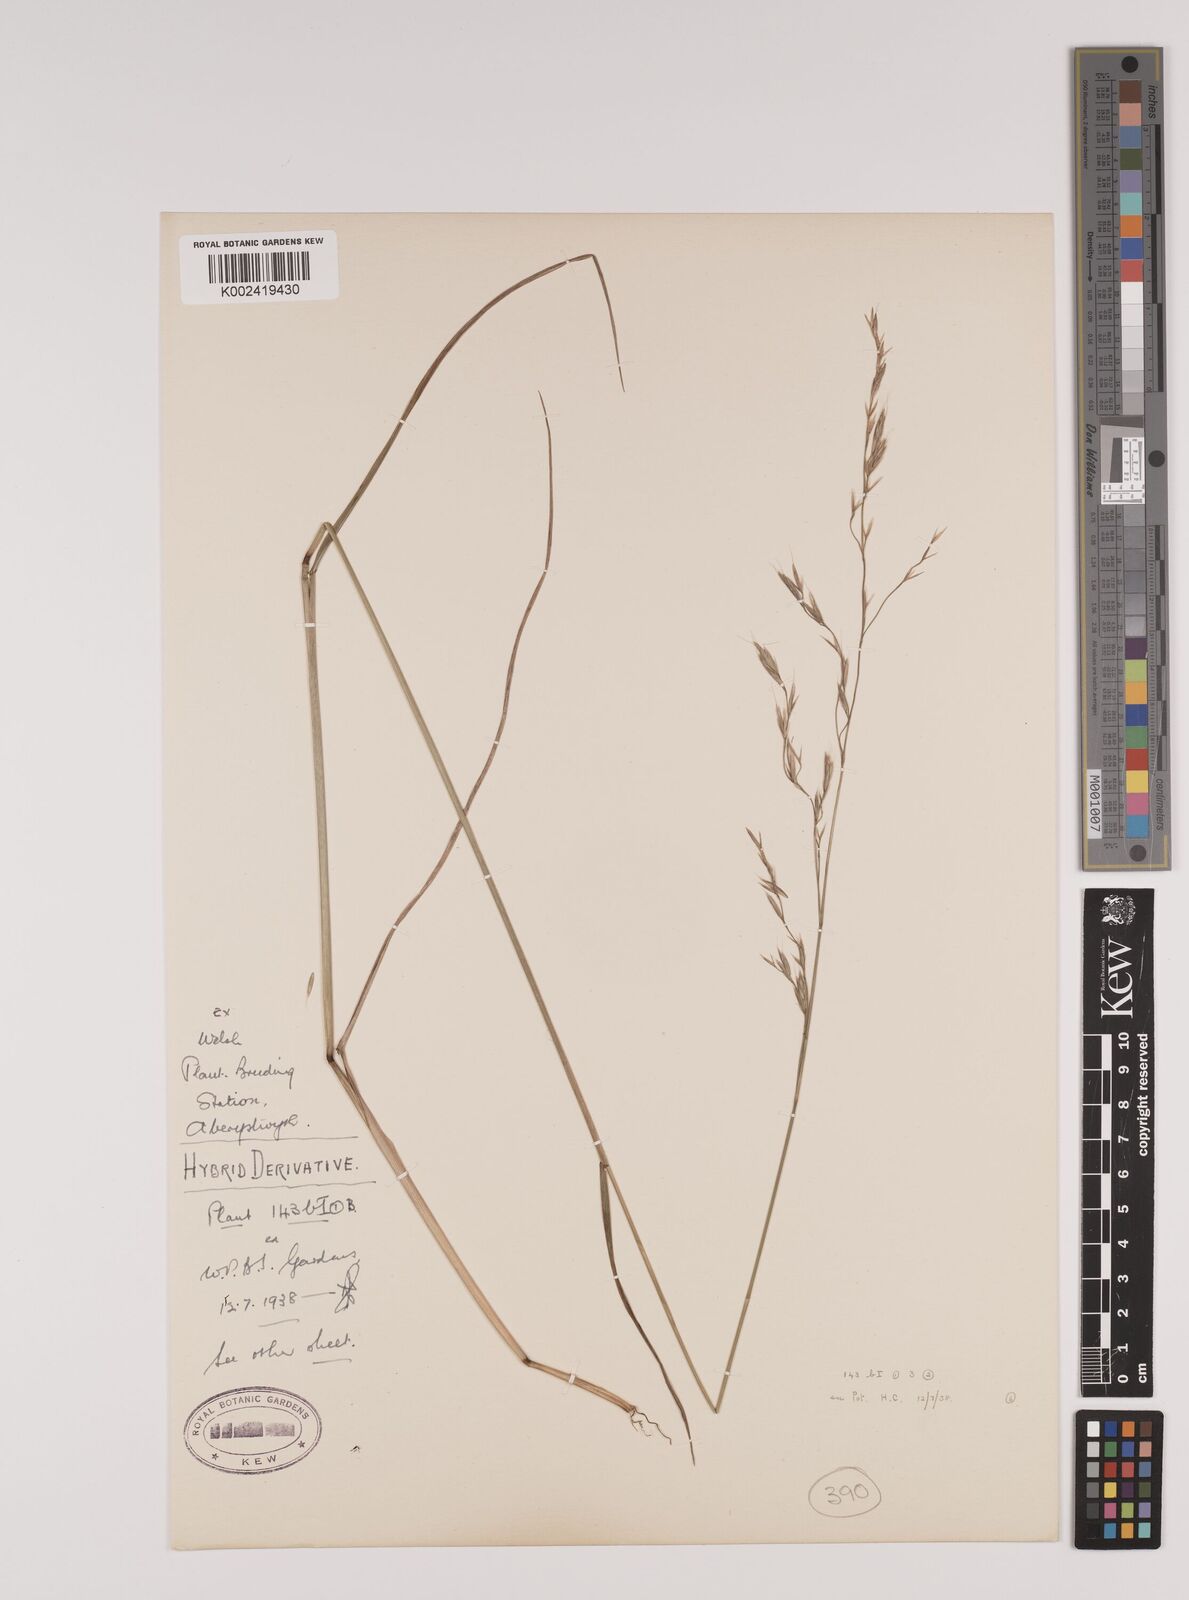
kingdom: Plantae
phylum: Tracheophyta
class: Liliopsida
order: Poales
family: Poaceae
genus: Lolium
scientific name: Lolium giganteum
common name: Giant fescue
